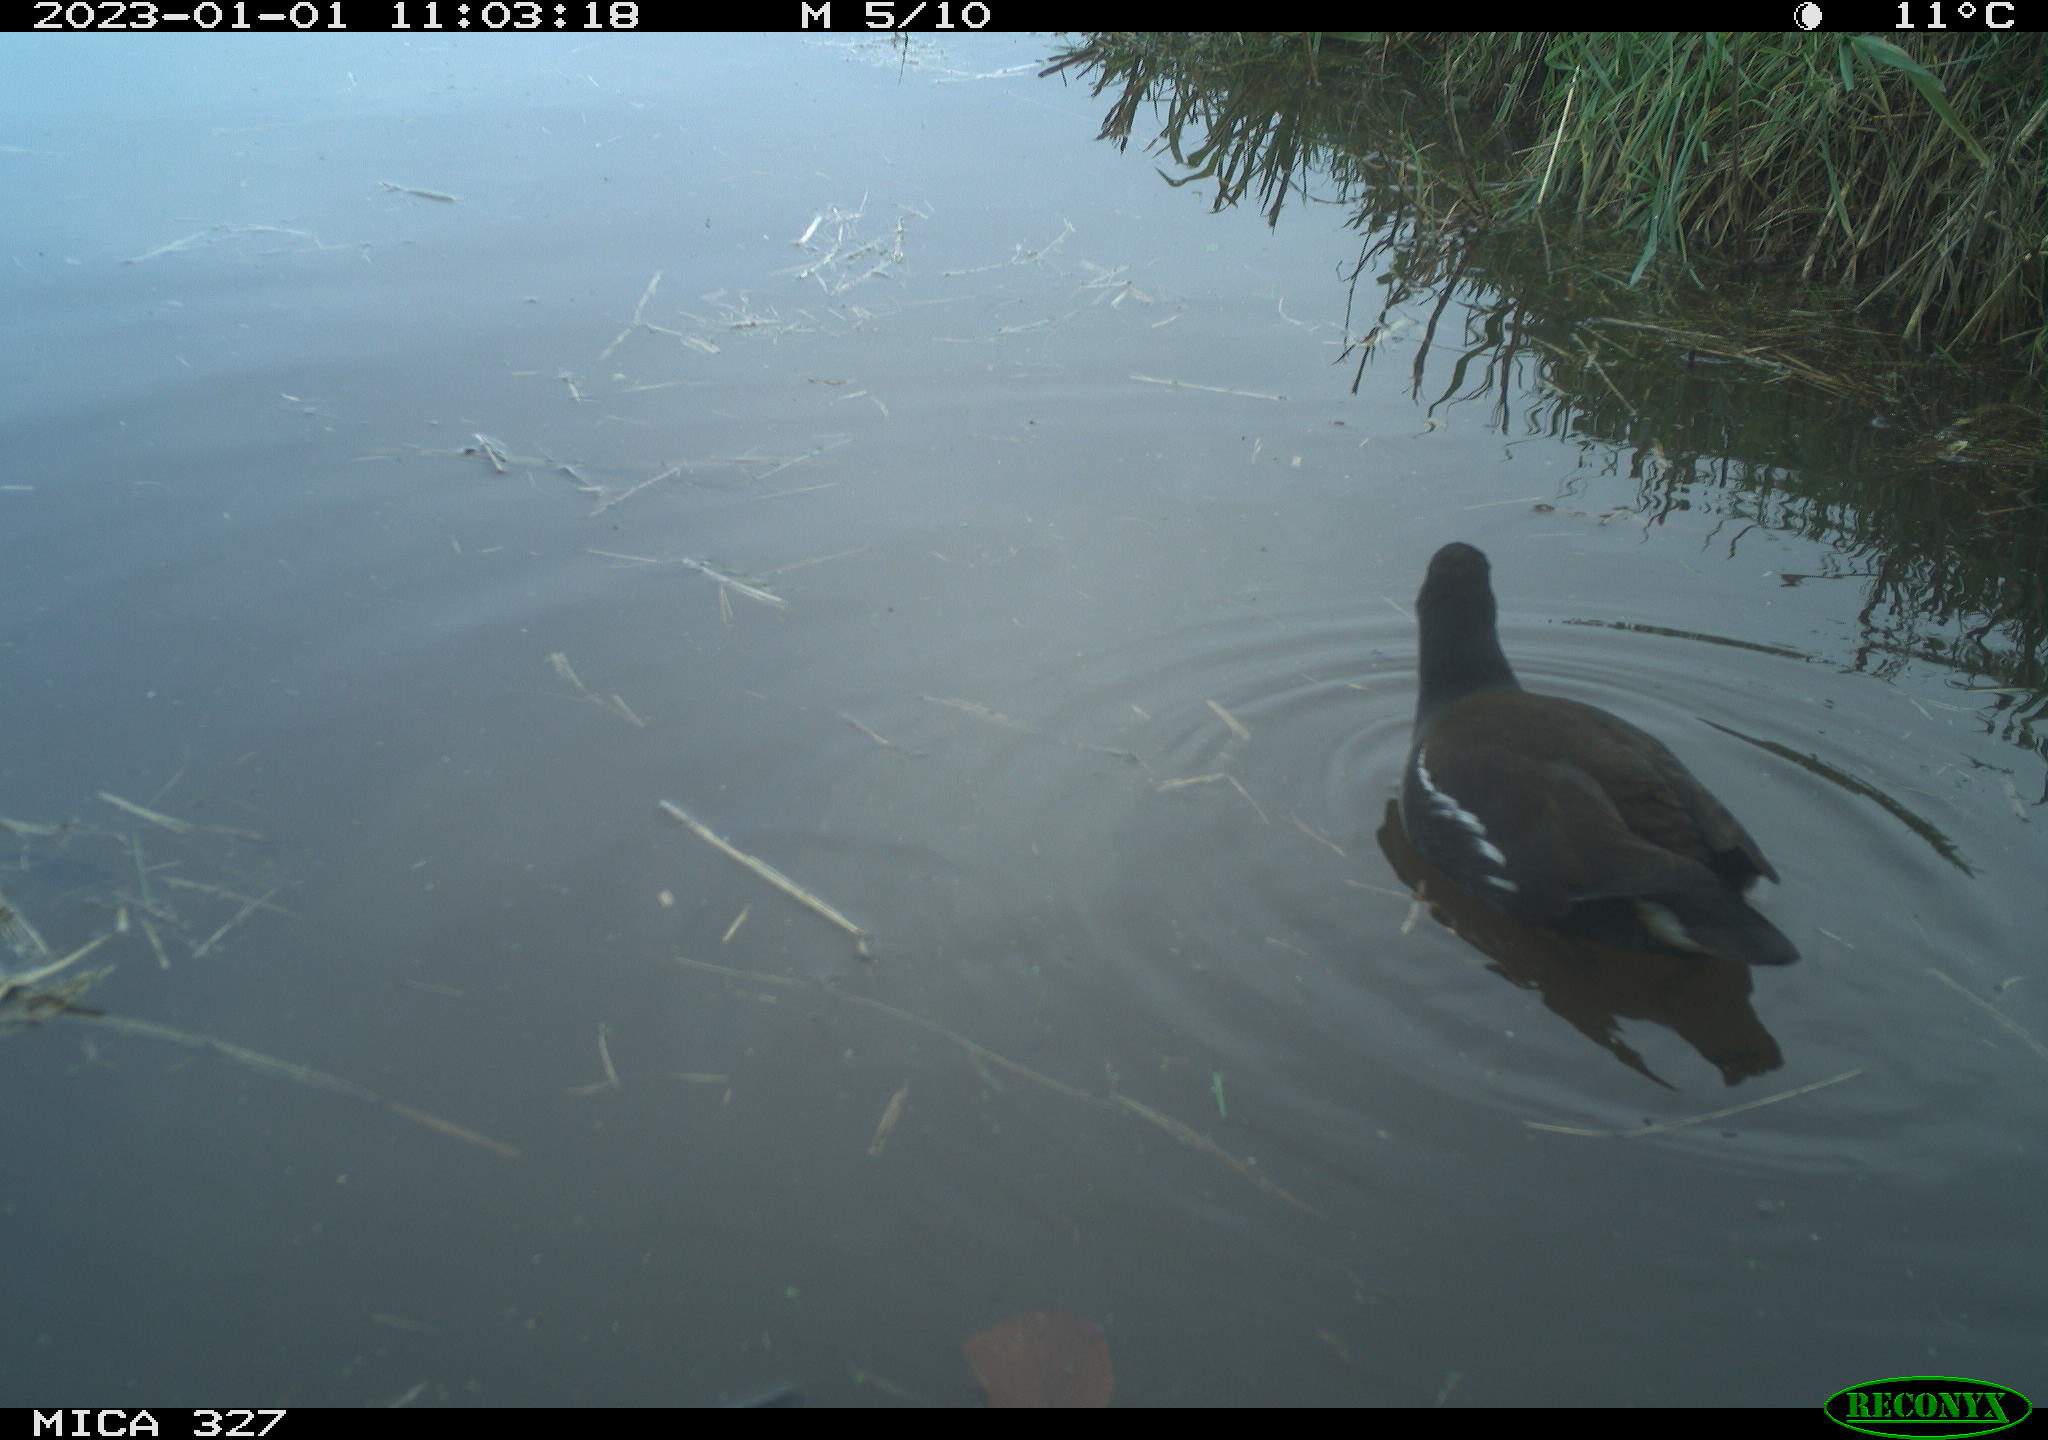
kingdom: Animalia
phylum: Chordata
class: Aves
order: Gruiformes
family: Rallidae
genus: Gallinula
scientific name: Gallinula chloropus
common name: Common moorhen
